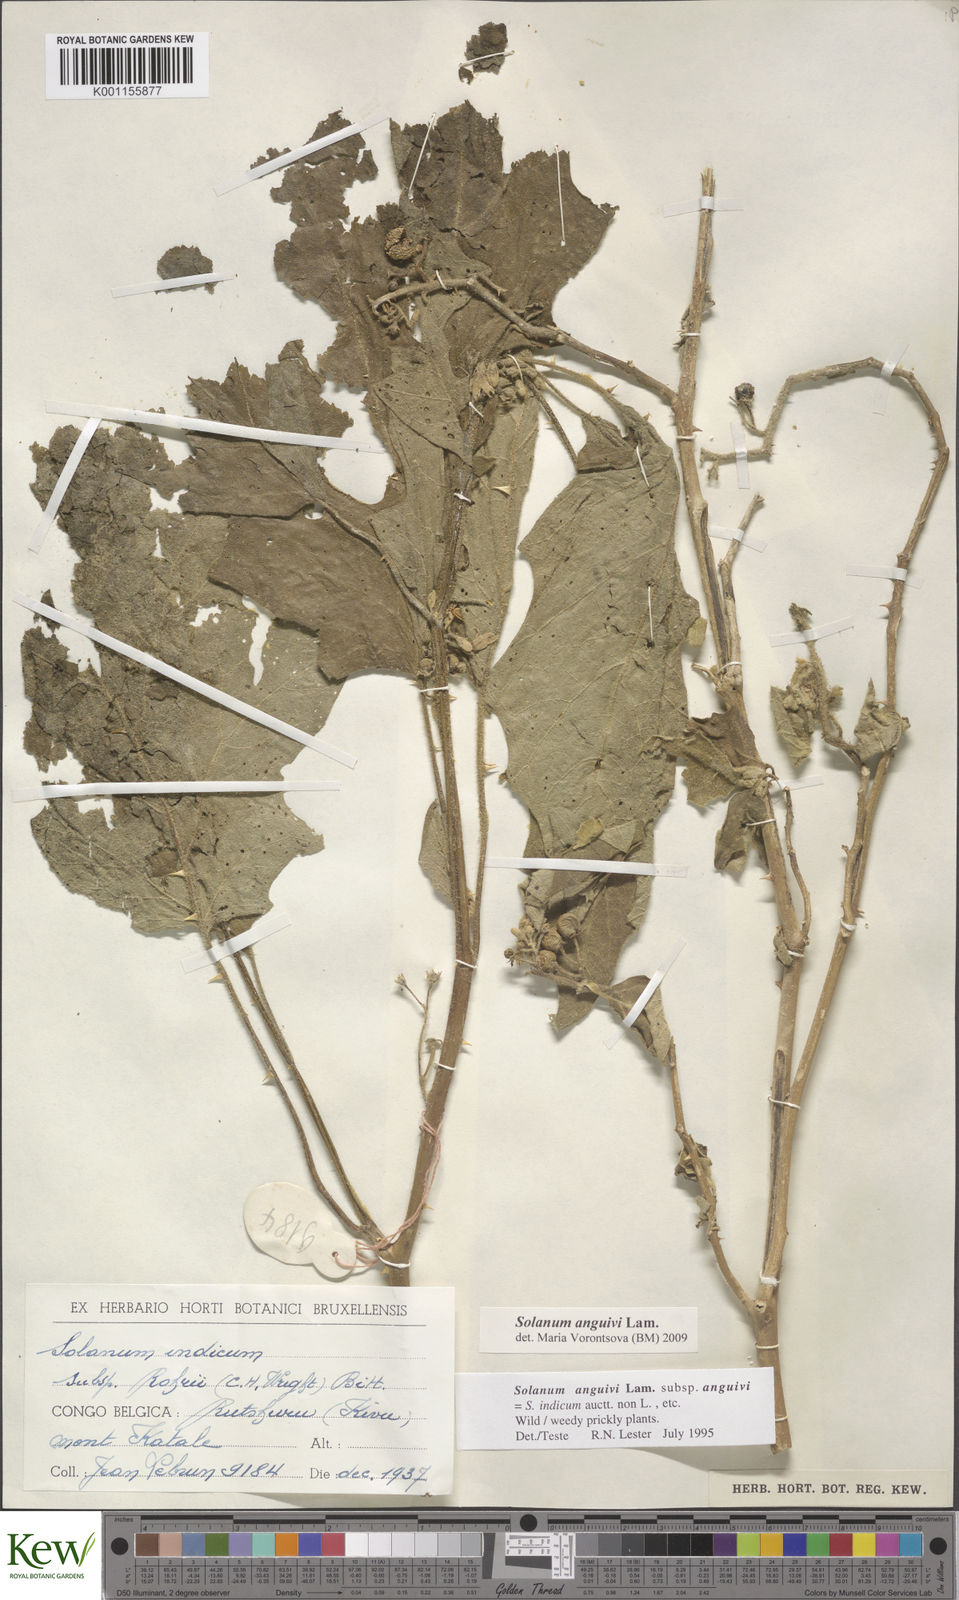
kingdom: Plantae
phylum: Tracheophyta
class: Magnoliopsida
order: Solanales
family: Solanaceae
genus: Solanum
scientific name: Solanum anguivi
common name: Forest bitterberry
